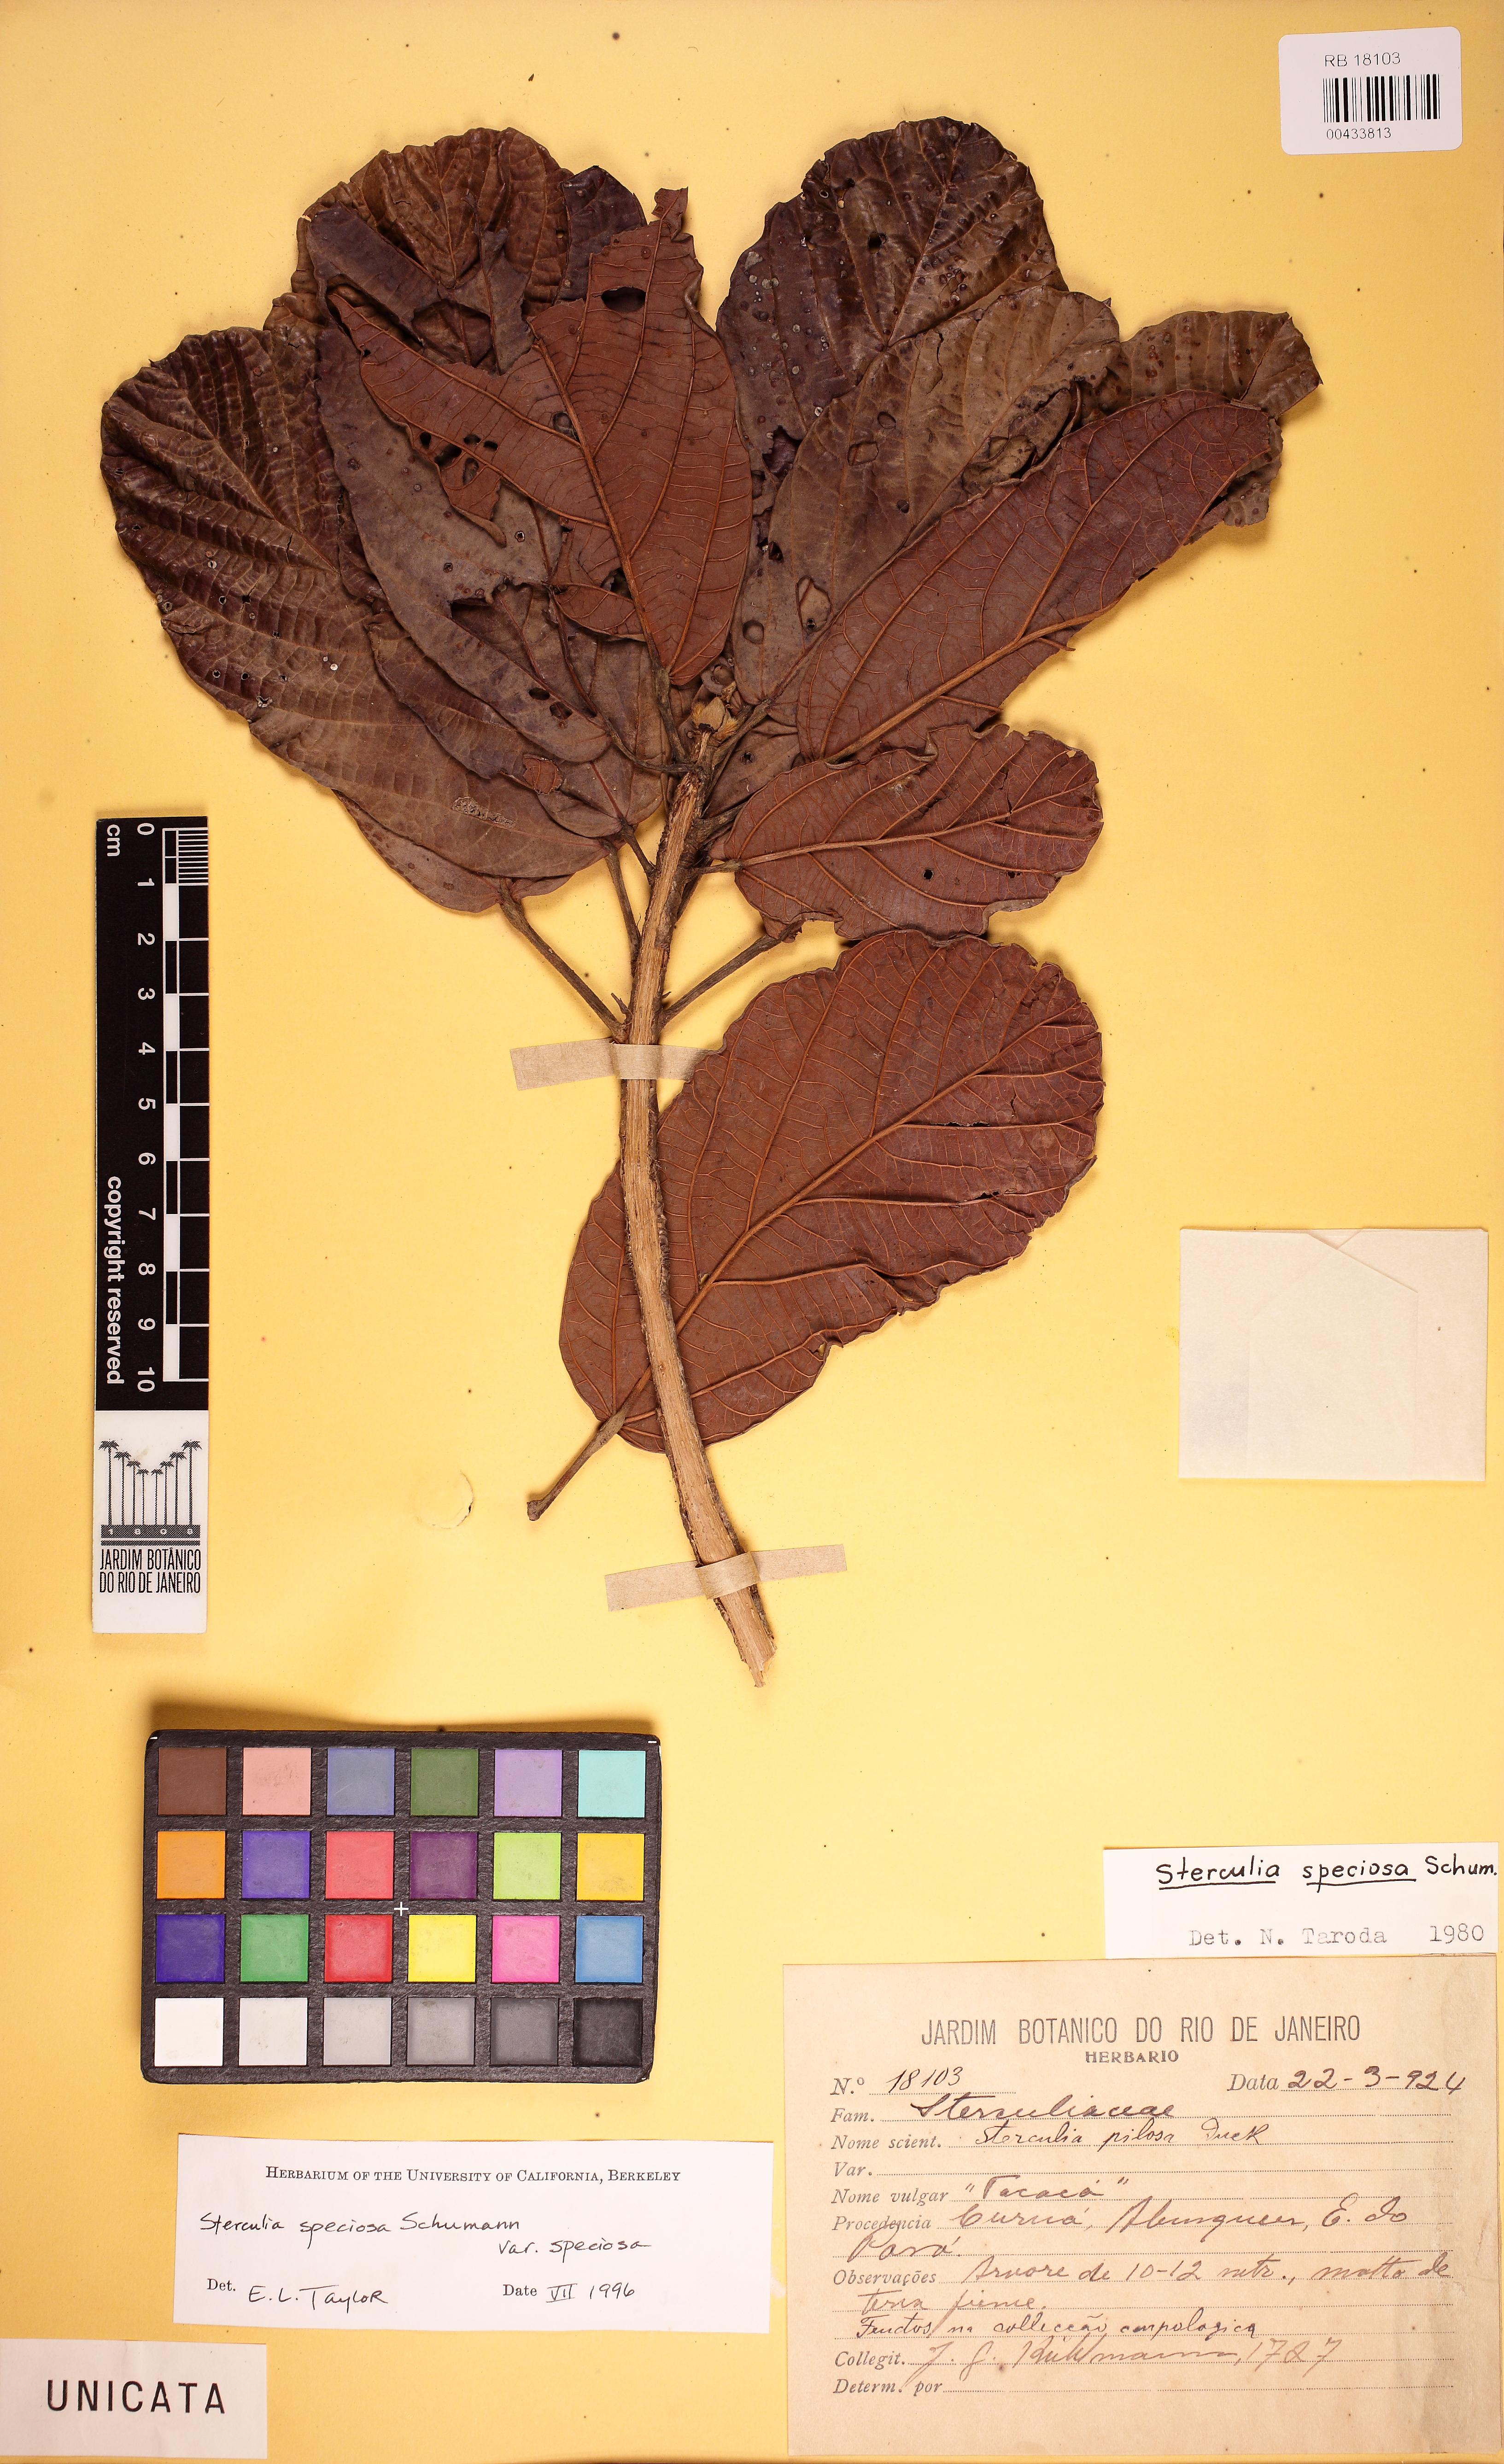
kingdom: Plantae
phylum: Tracheophyta
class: Magnoliopsida
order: Malvales
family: Malvaceae
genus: Sterculia
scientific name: Sterculia speciosa
